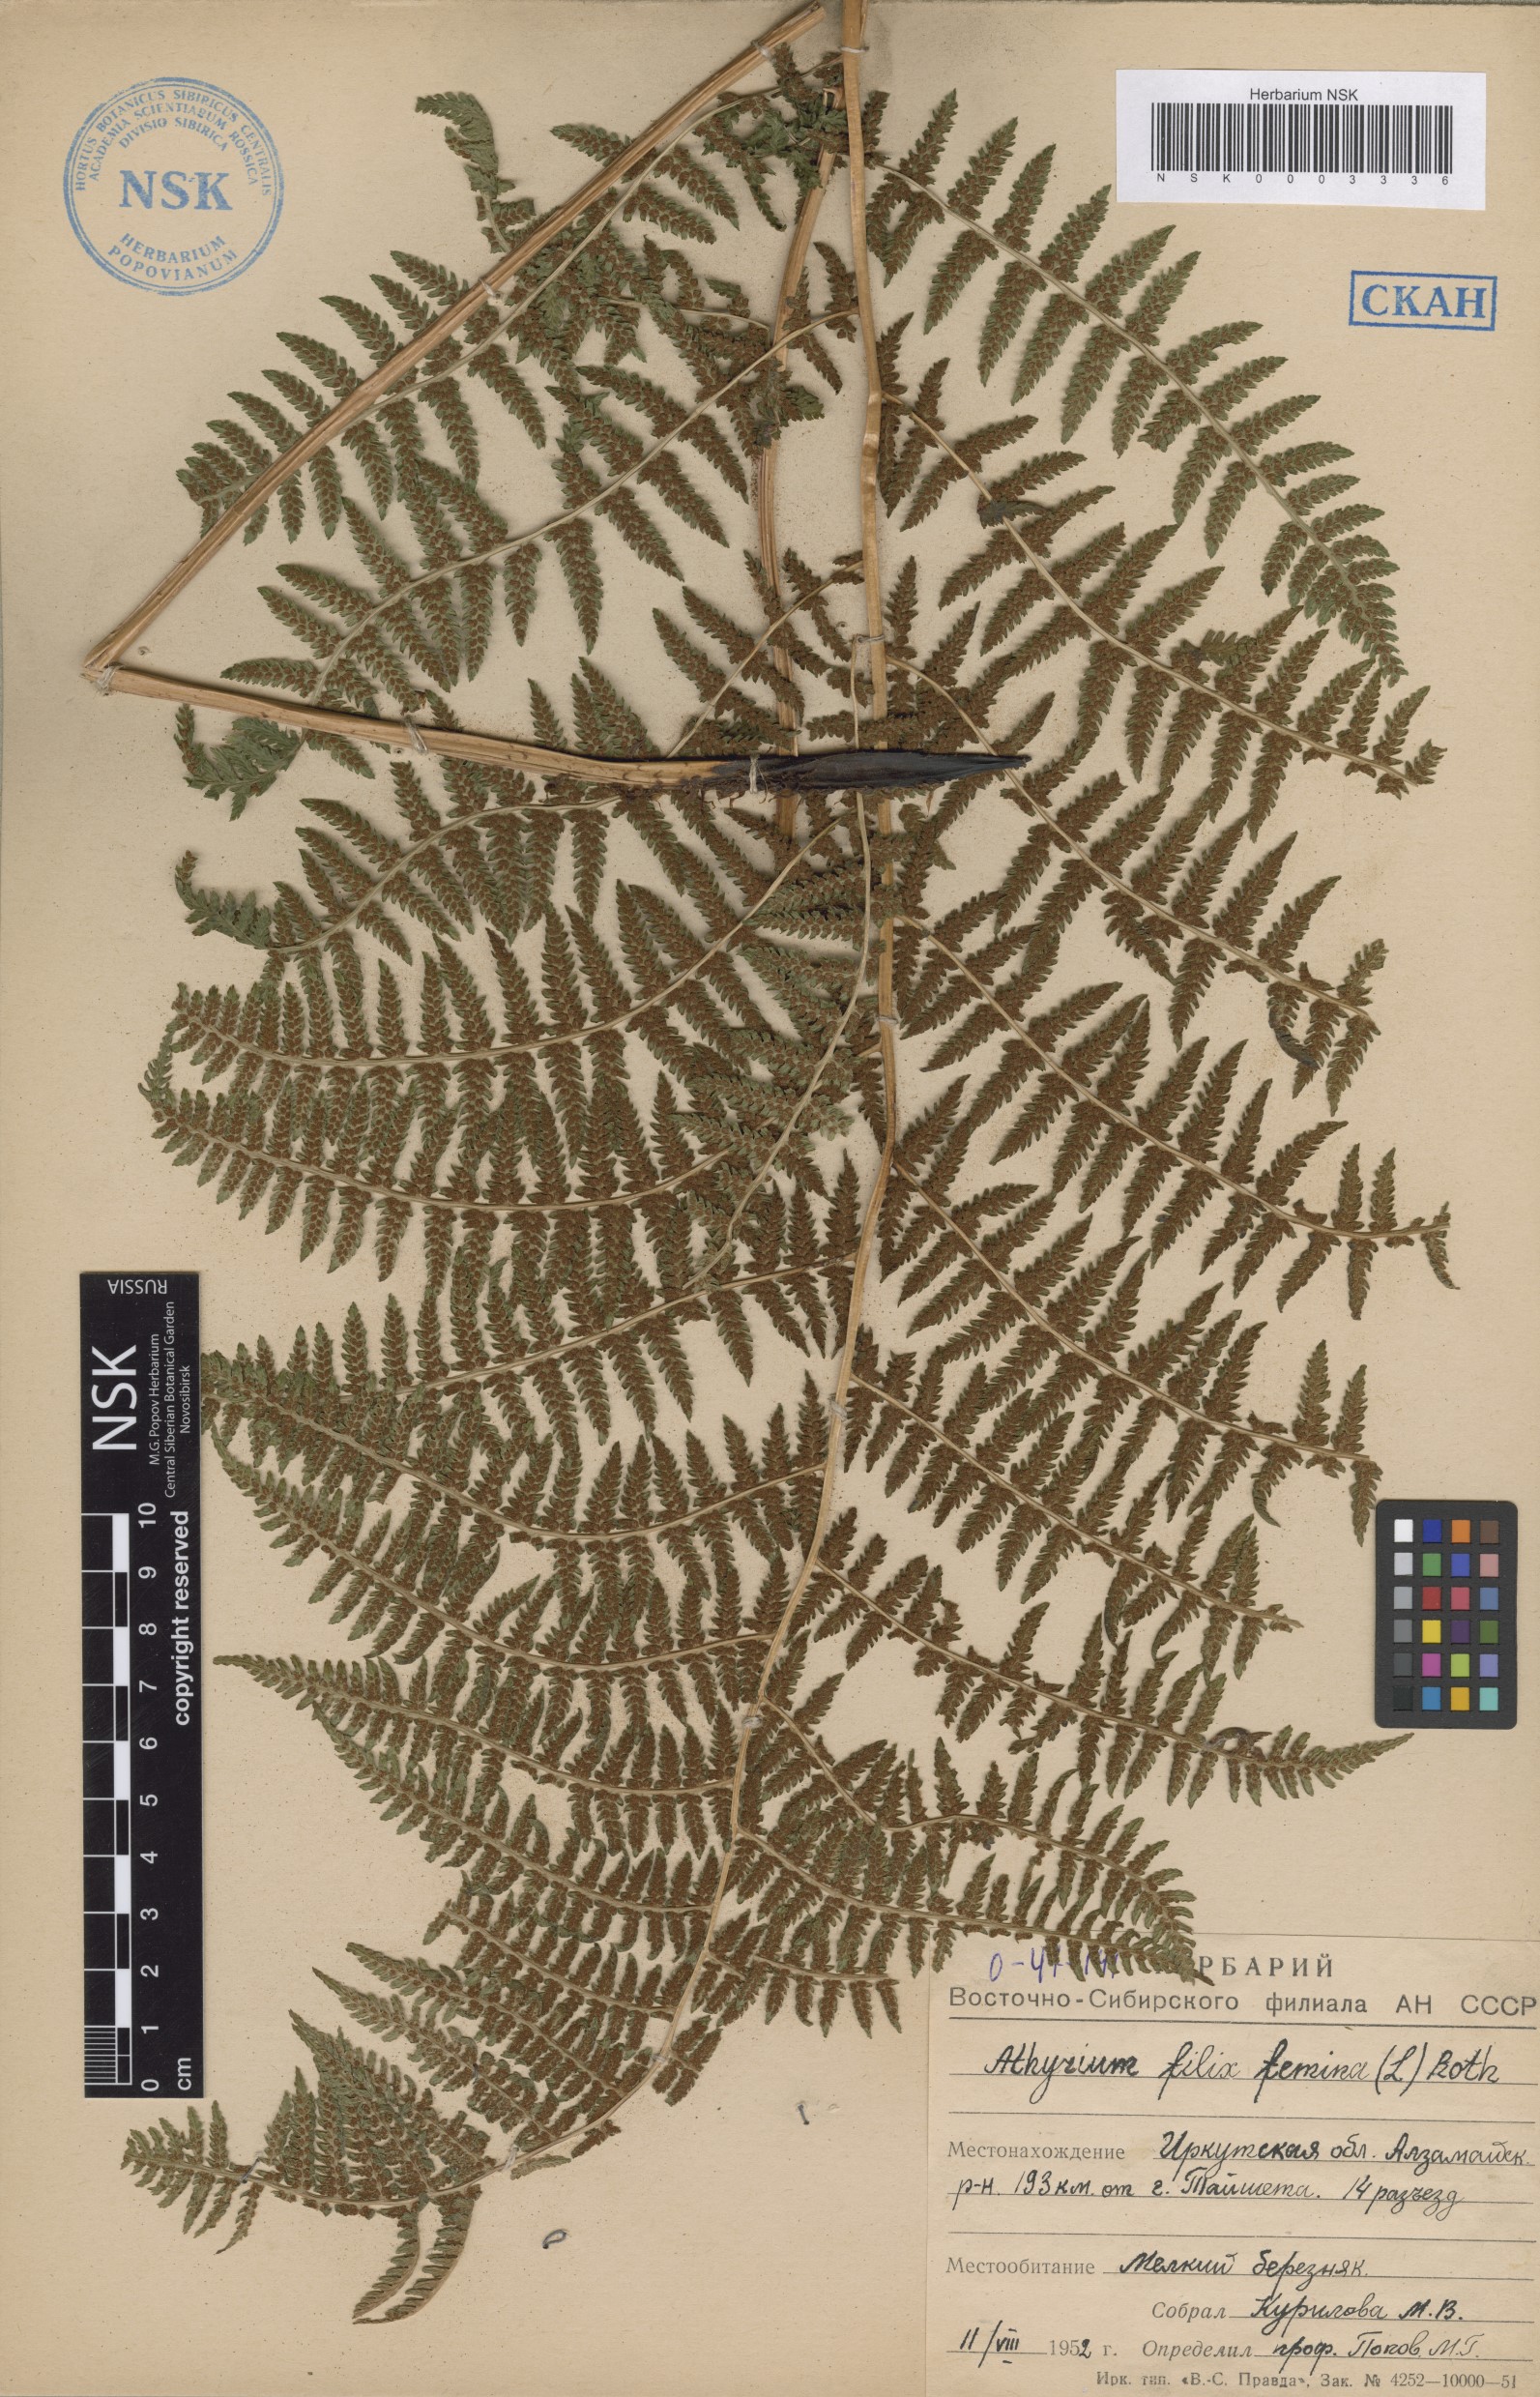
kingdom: Plantae
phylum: Tracheophyta
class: Polypodiopsida
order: Polypodiales
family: Athyriaceae
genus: Athyrium
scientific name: Athyrium filix-femina
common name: Lady fern
